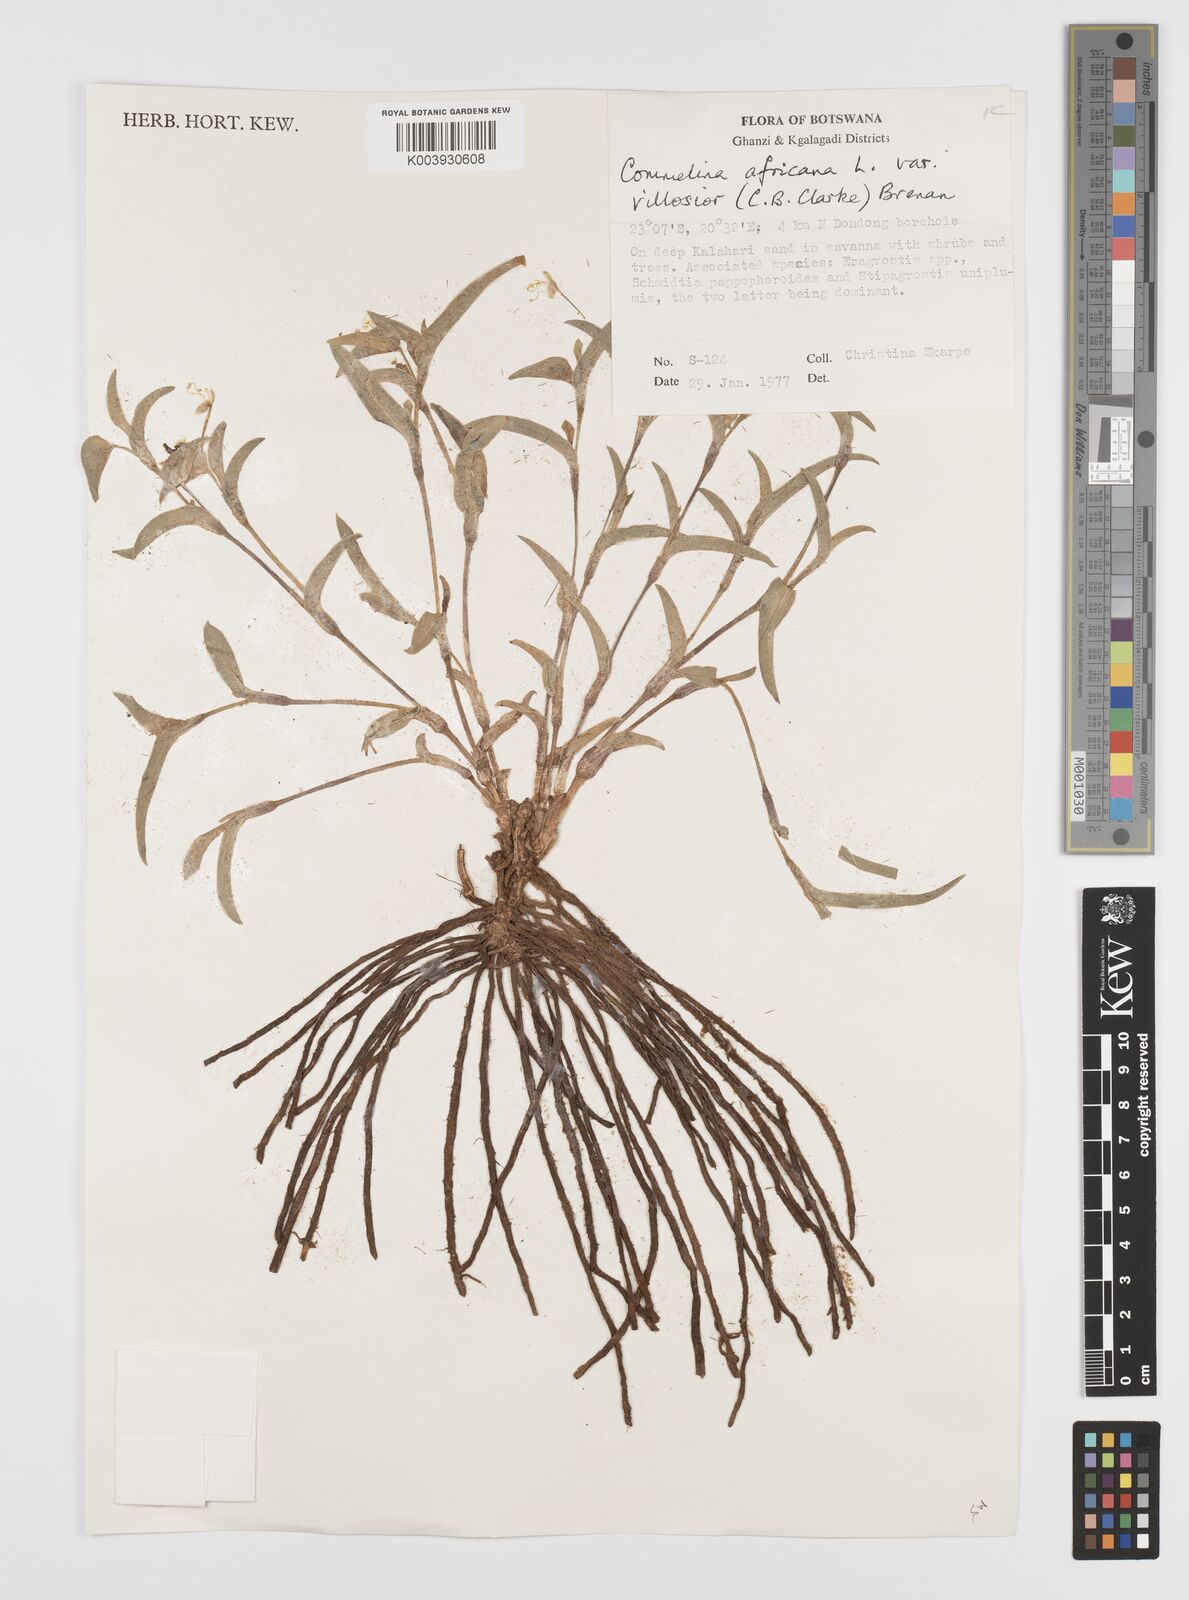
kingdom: Plantae
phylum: Tracheophyta
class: Liliopsida
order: Commelinales
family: Commelinaceae
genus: Commelina
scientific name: Commelina africana
